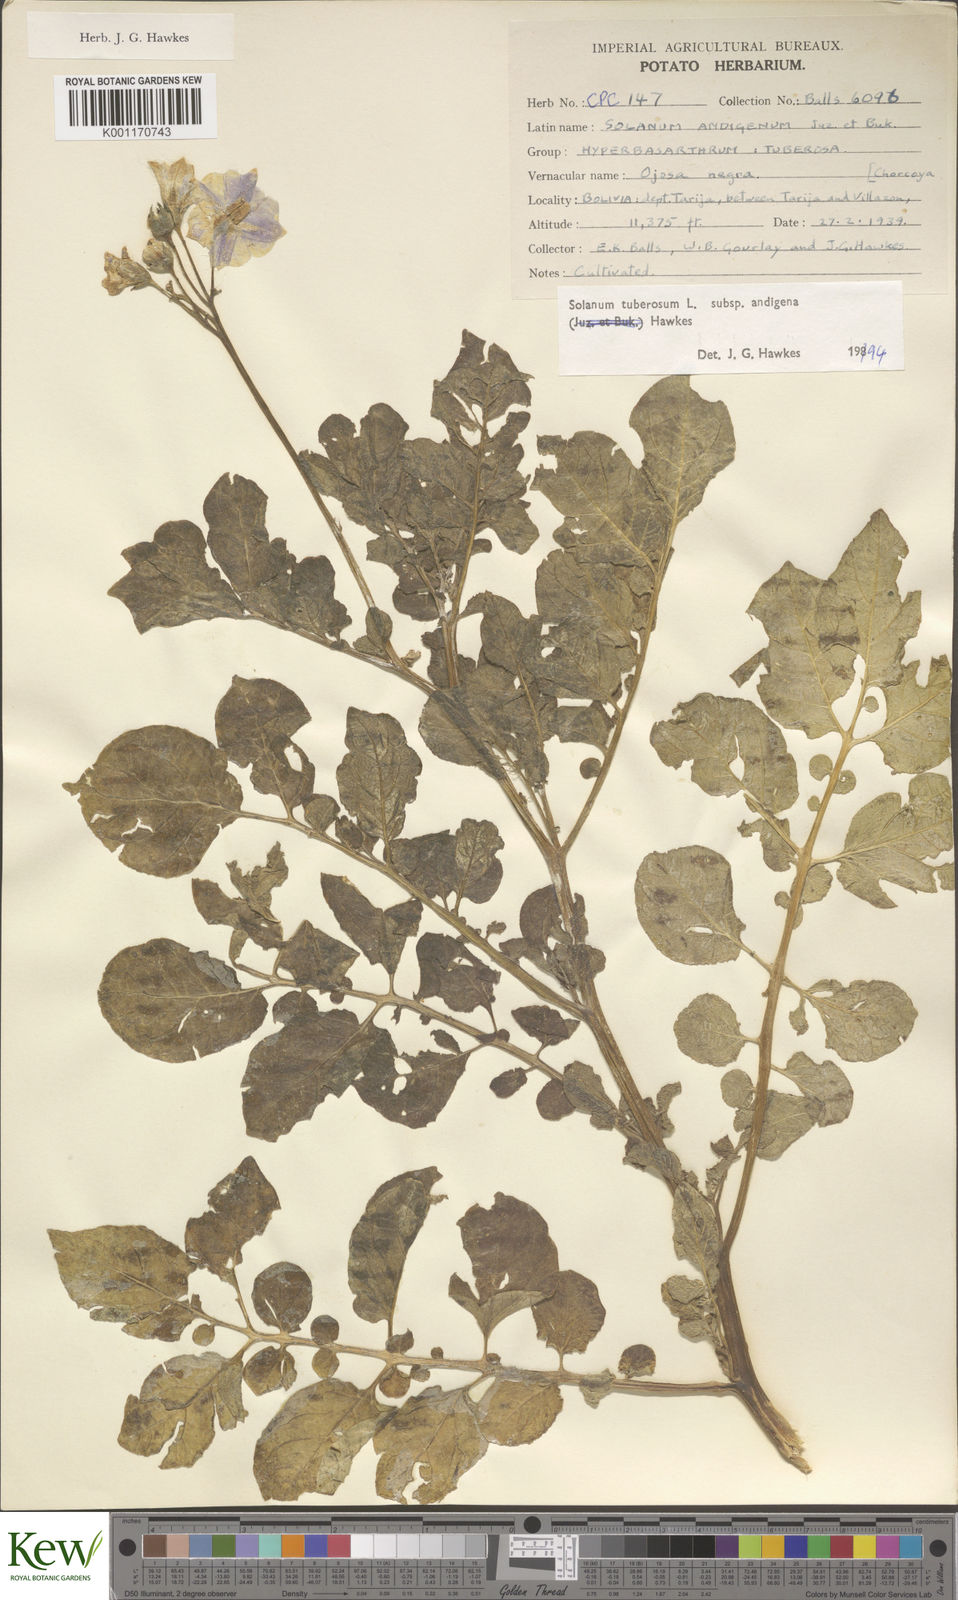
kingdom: Plantae
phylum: Tracheophyta
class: Magnoliopsida
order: Solanales
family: Solanaceae
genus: Solanum
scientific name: Solanum tuberosum
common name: Potato
